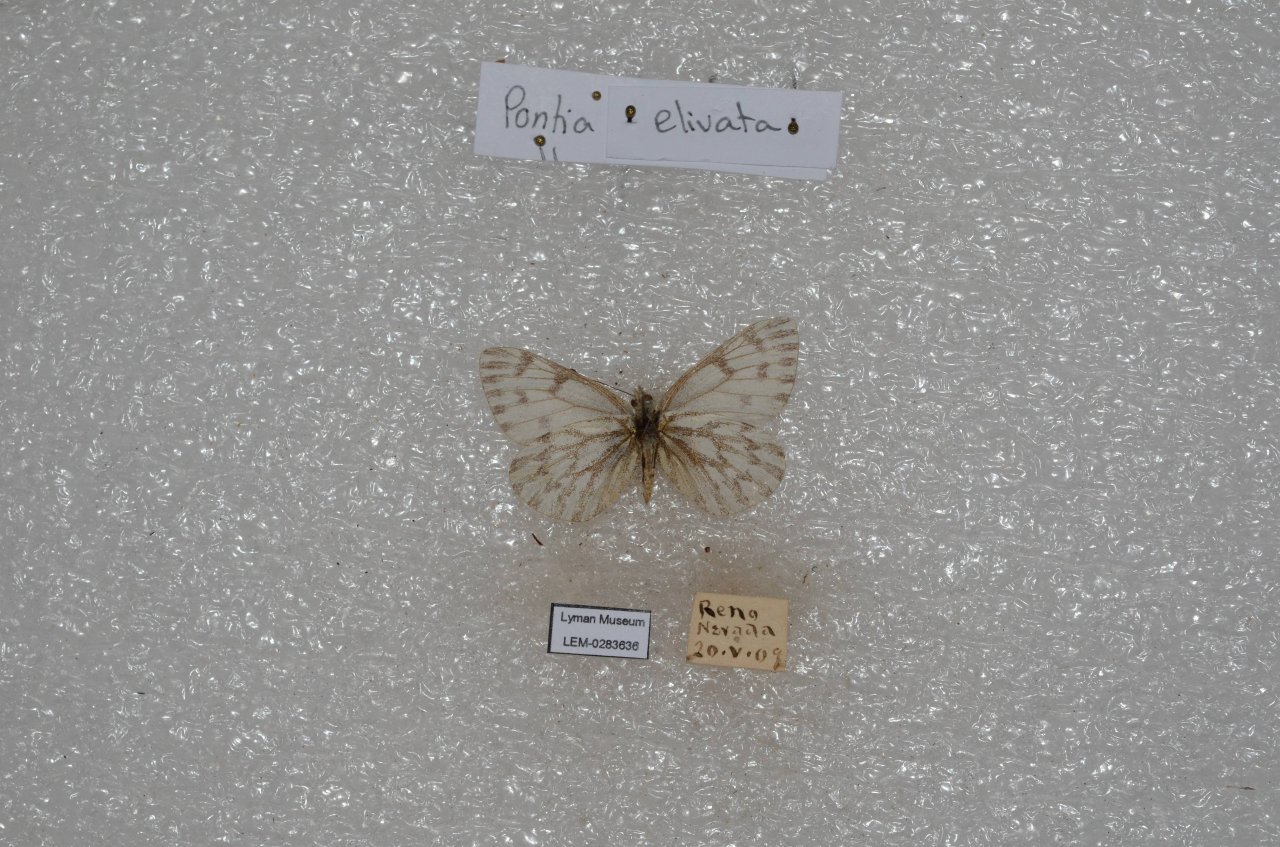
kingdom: Animalia
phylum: Arthropoda
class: Insecta
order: Lepidoptera
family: Pieridae
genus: Pontia
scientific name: Pontia sisymbrii
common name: Spring White
